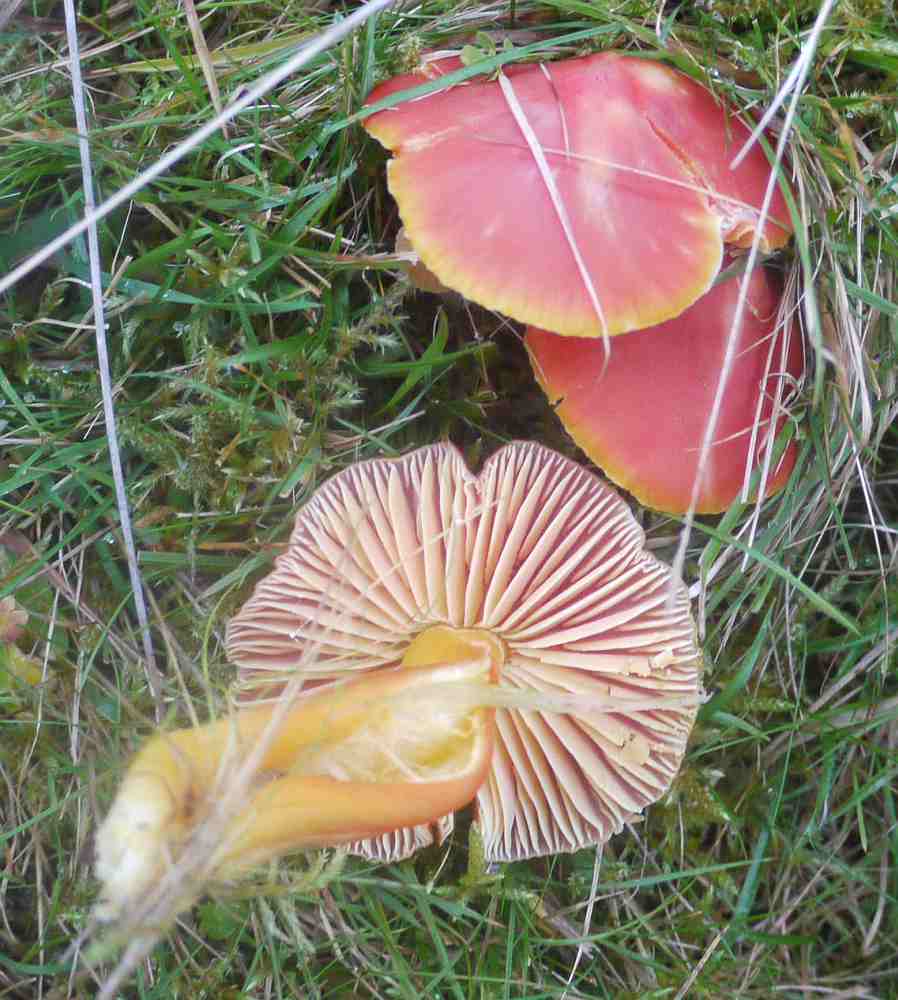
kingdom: Fungi
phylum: Basidiomycota
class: Agaricomycetes
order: Agaricales
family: Hygrophoraceae
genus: Hygrocybe
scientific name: Hygrocybe splendidissima
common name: knaldrød vokshat
